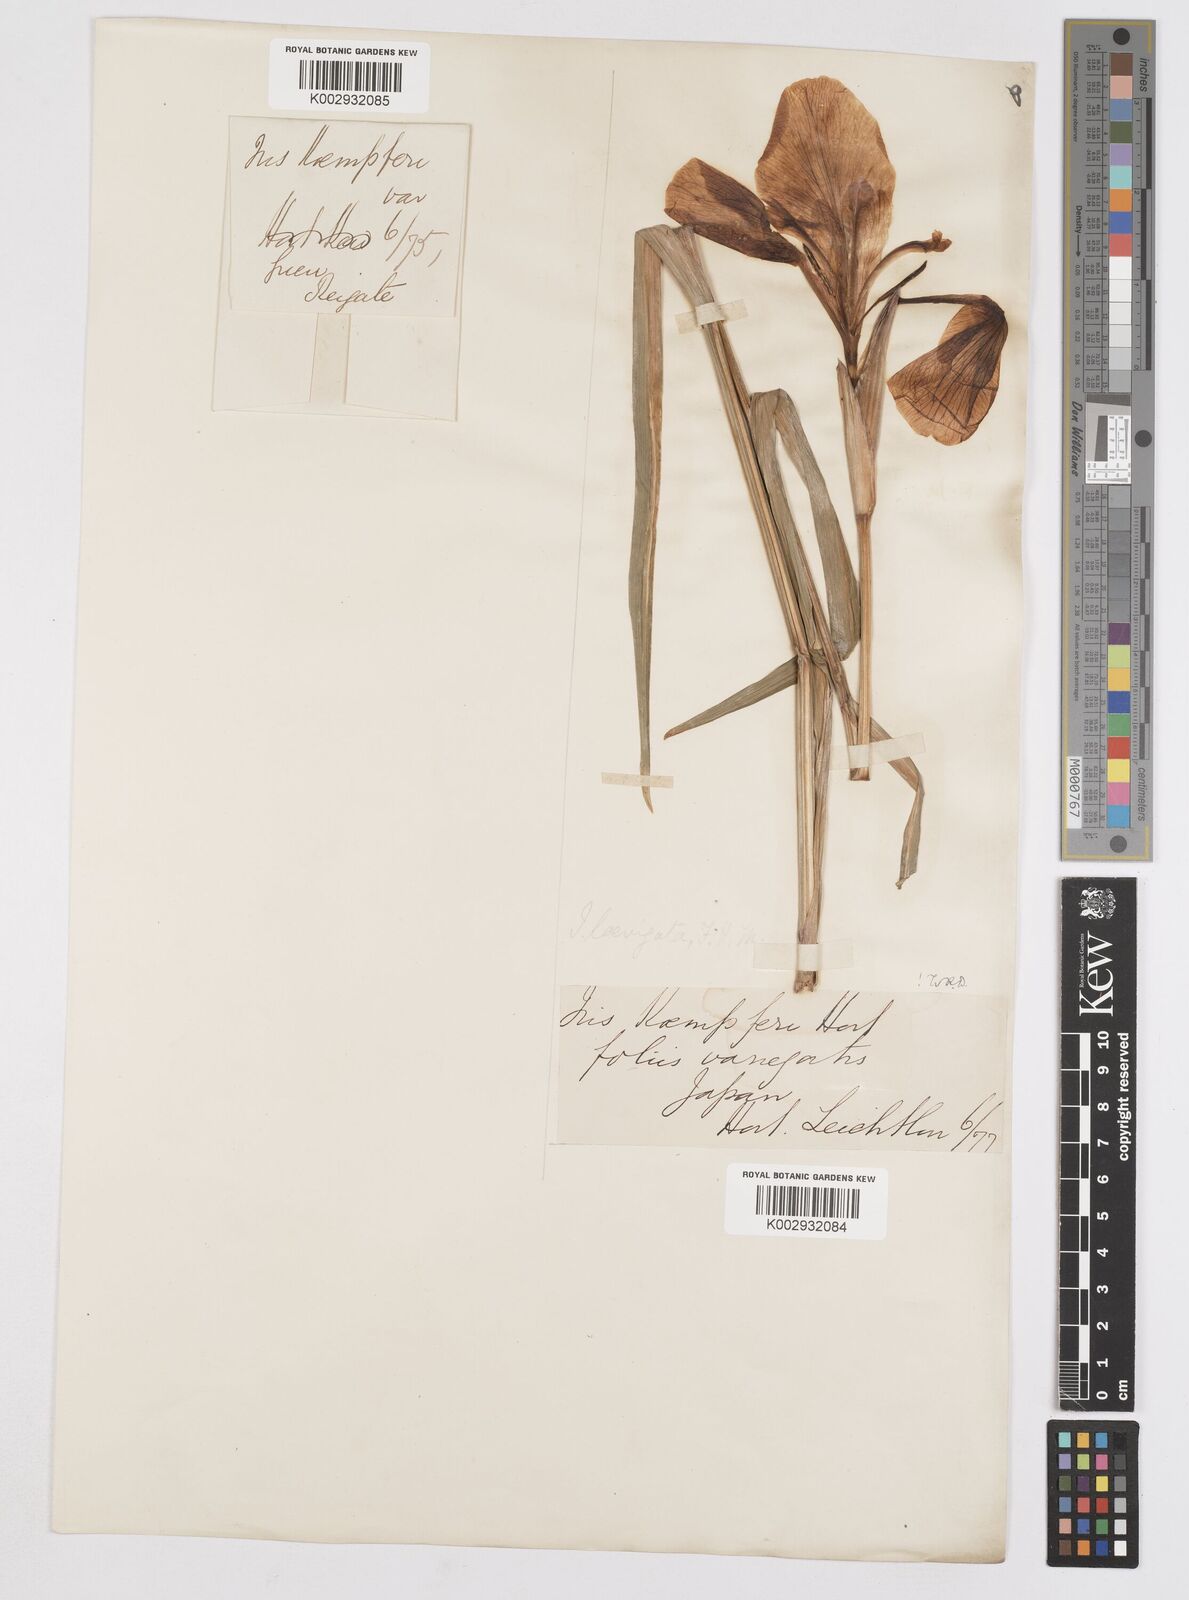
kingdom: Plantae
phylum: Tracheophyta
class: Liliopsida
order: Asparagales
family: Iridaceae
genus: Iris
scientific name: Iris ensata
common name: Beaked iris
